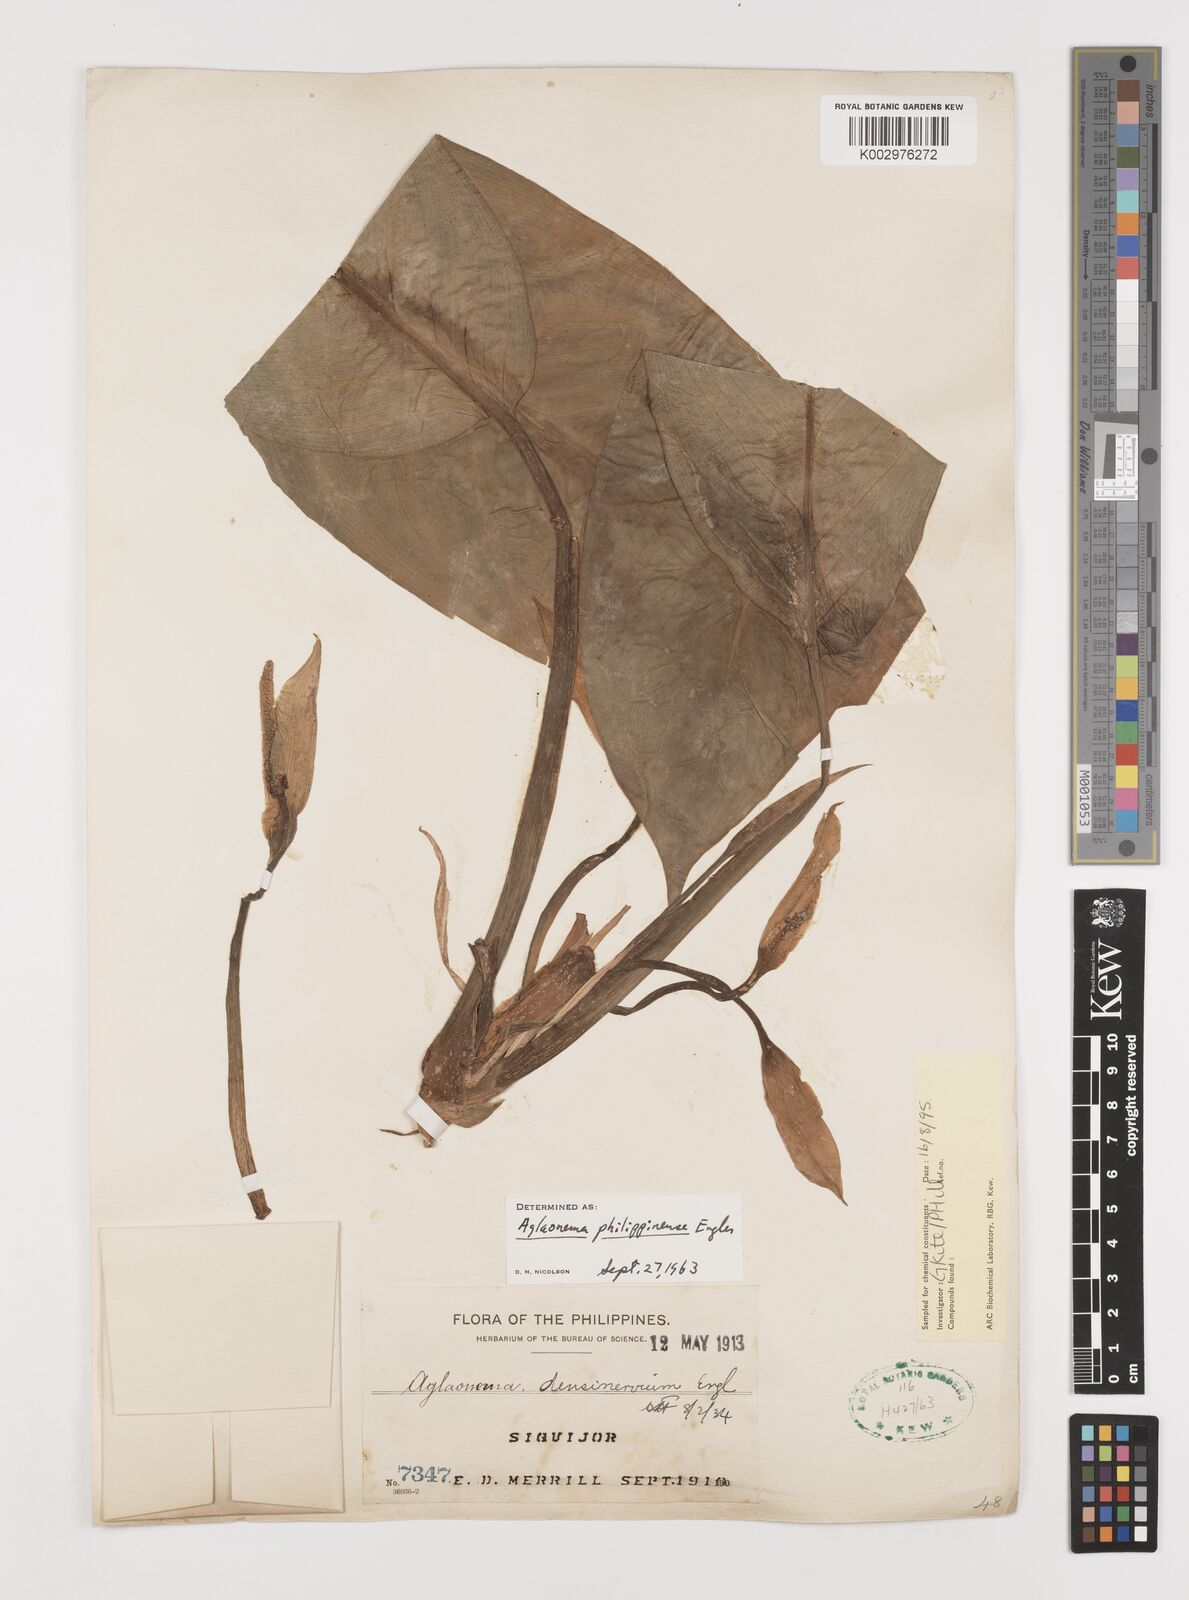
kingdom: Plantae
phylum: Tracheophyta
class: Liliopsida
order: Alismatales
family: Araceae
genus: Aglaonema
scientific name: Aglaonema philippinense
